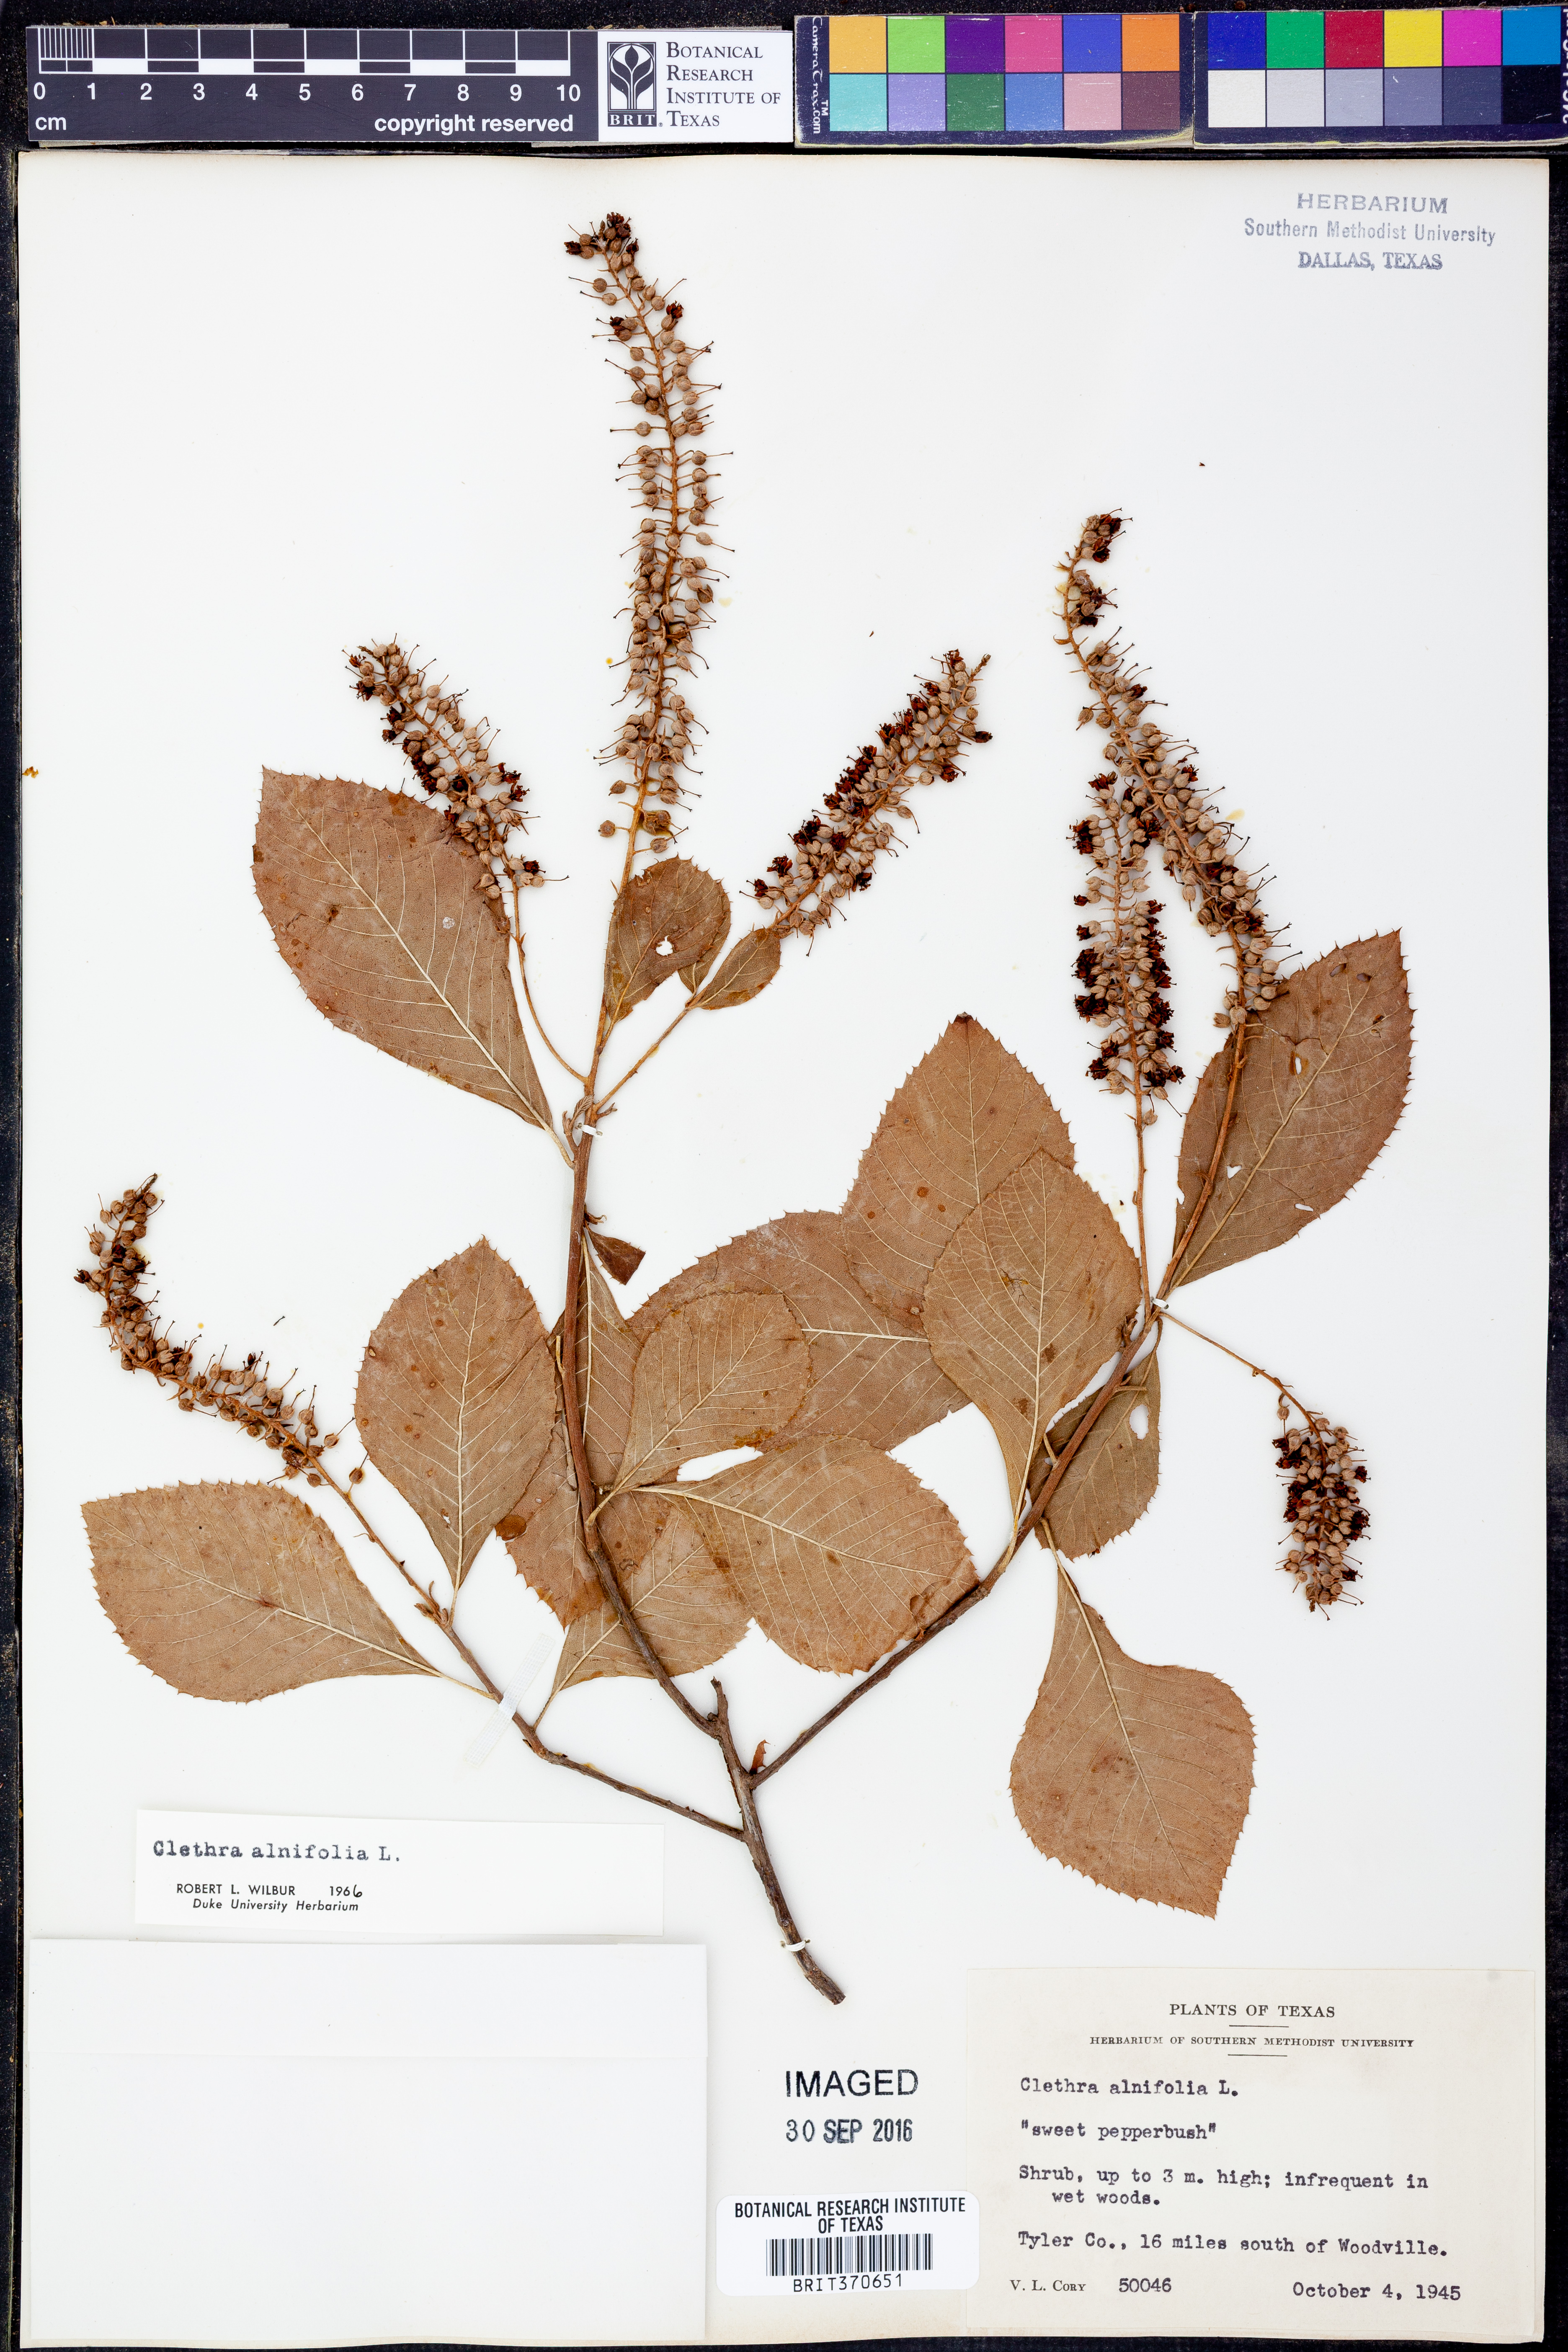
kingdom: Plantae
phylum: Tracheophyta
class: Magnoliopsida
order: Ericales
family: Clethraceae
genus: Clethra
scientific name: Clethra alnifolia
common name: Sweet pepperbush
